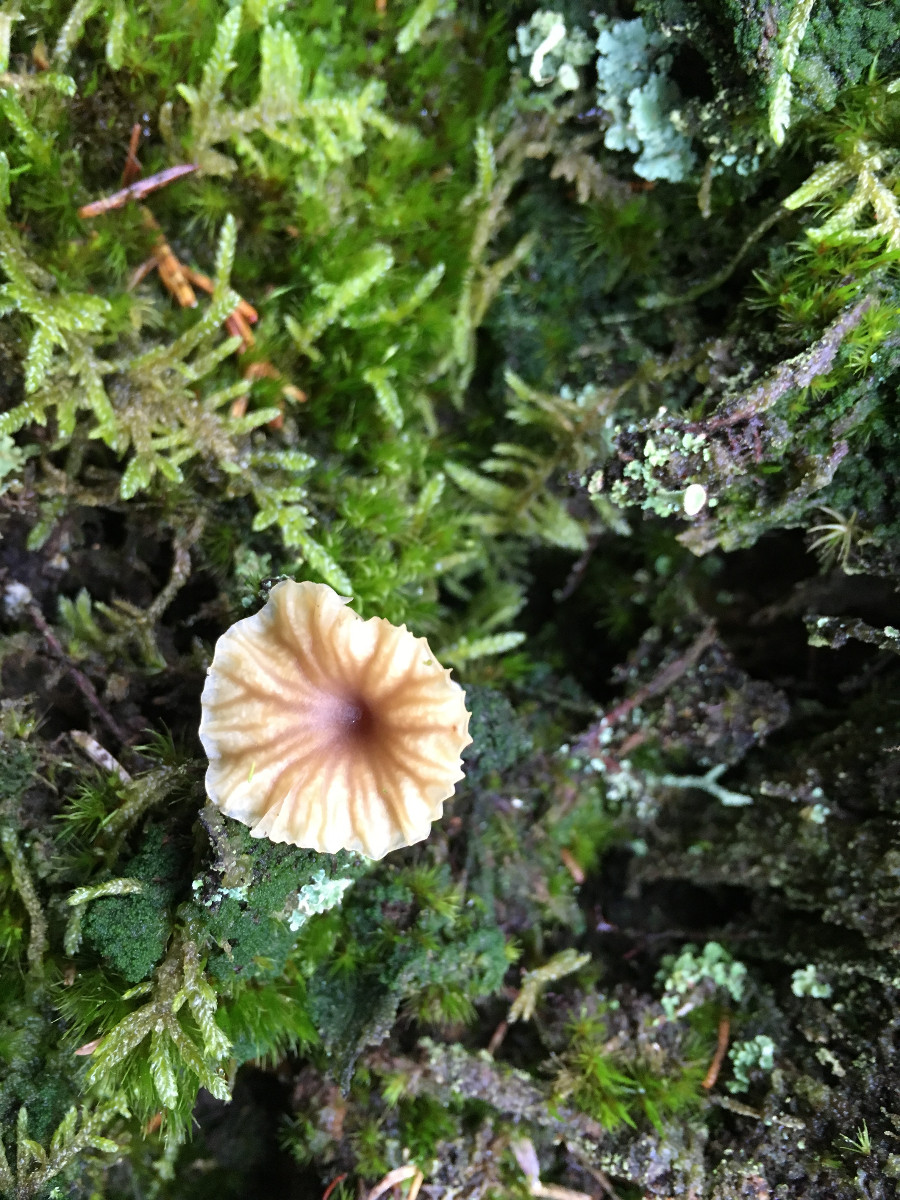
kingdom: Fungi
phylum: Basidiomycota
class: Agaricomycetes
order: Agaricales
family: Hygrophoraceae
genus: Lichenomphalia
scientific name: Lichenomphalia umbellifera
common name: tørve-lavhat
